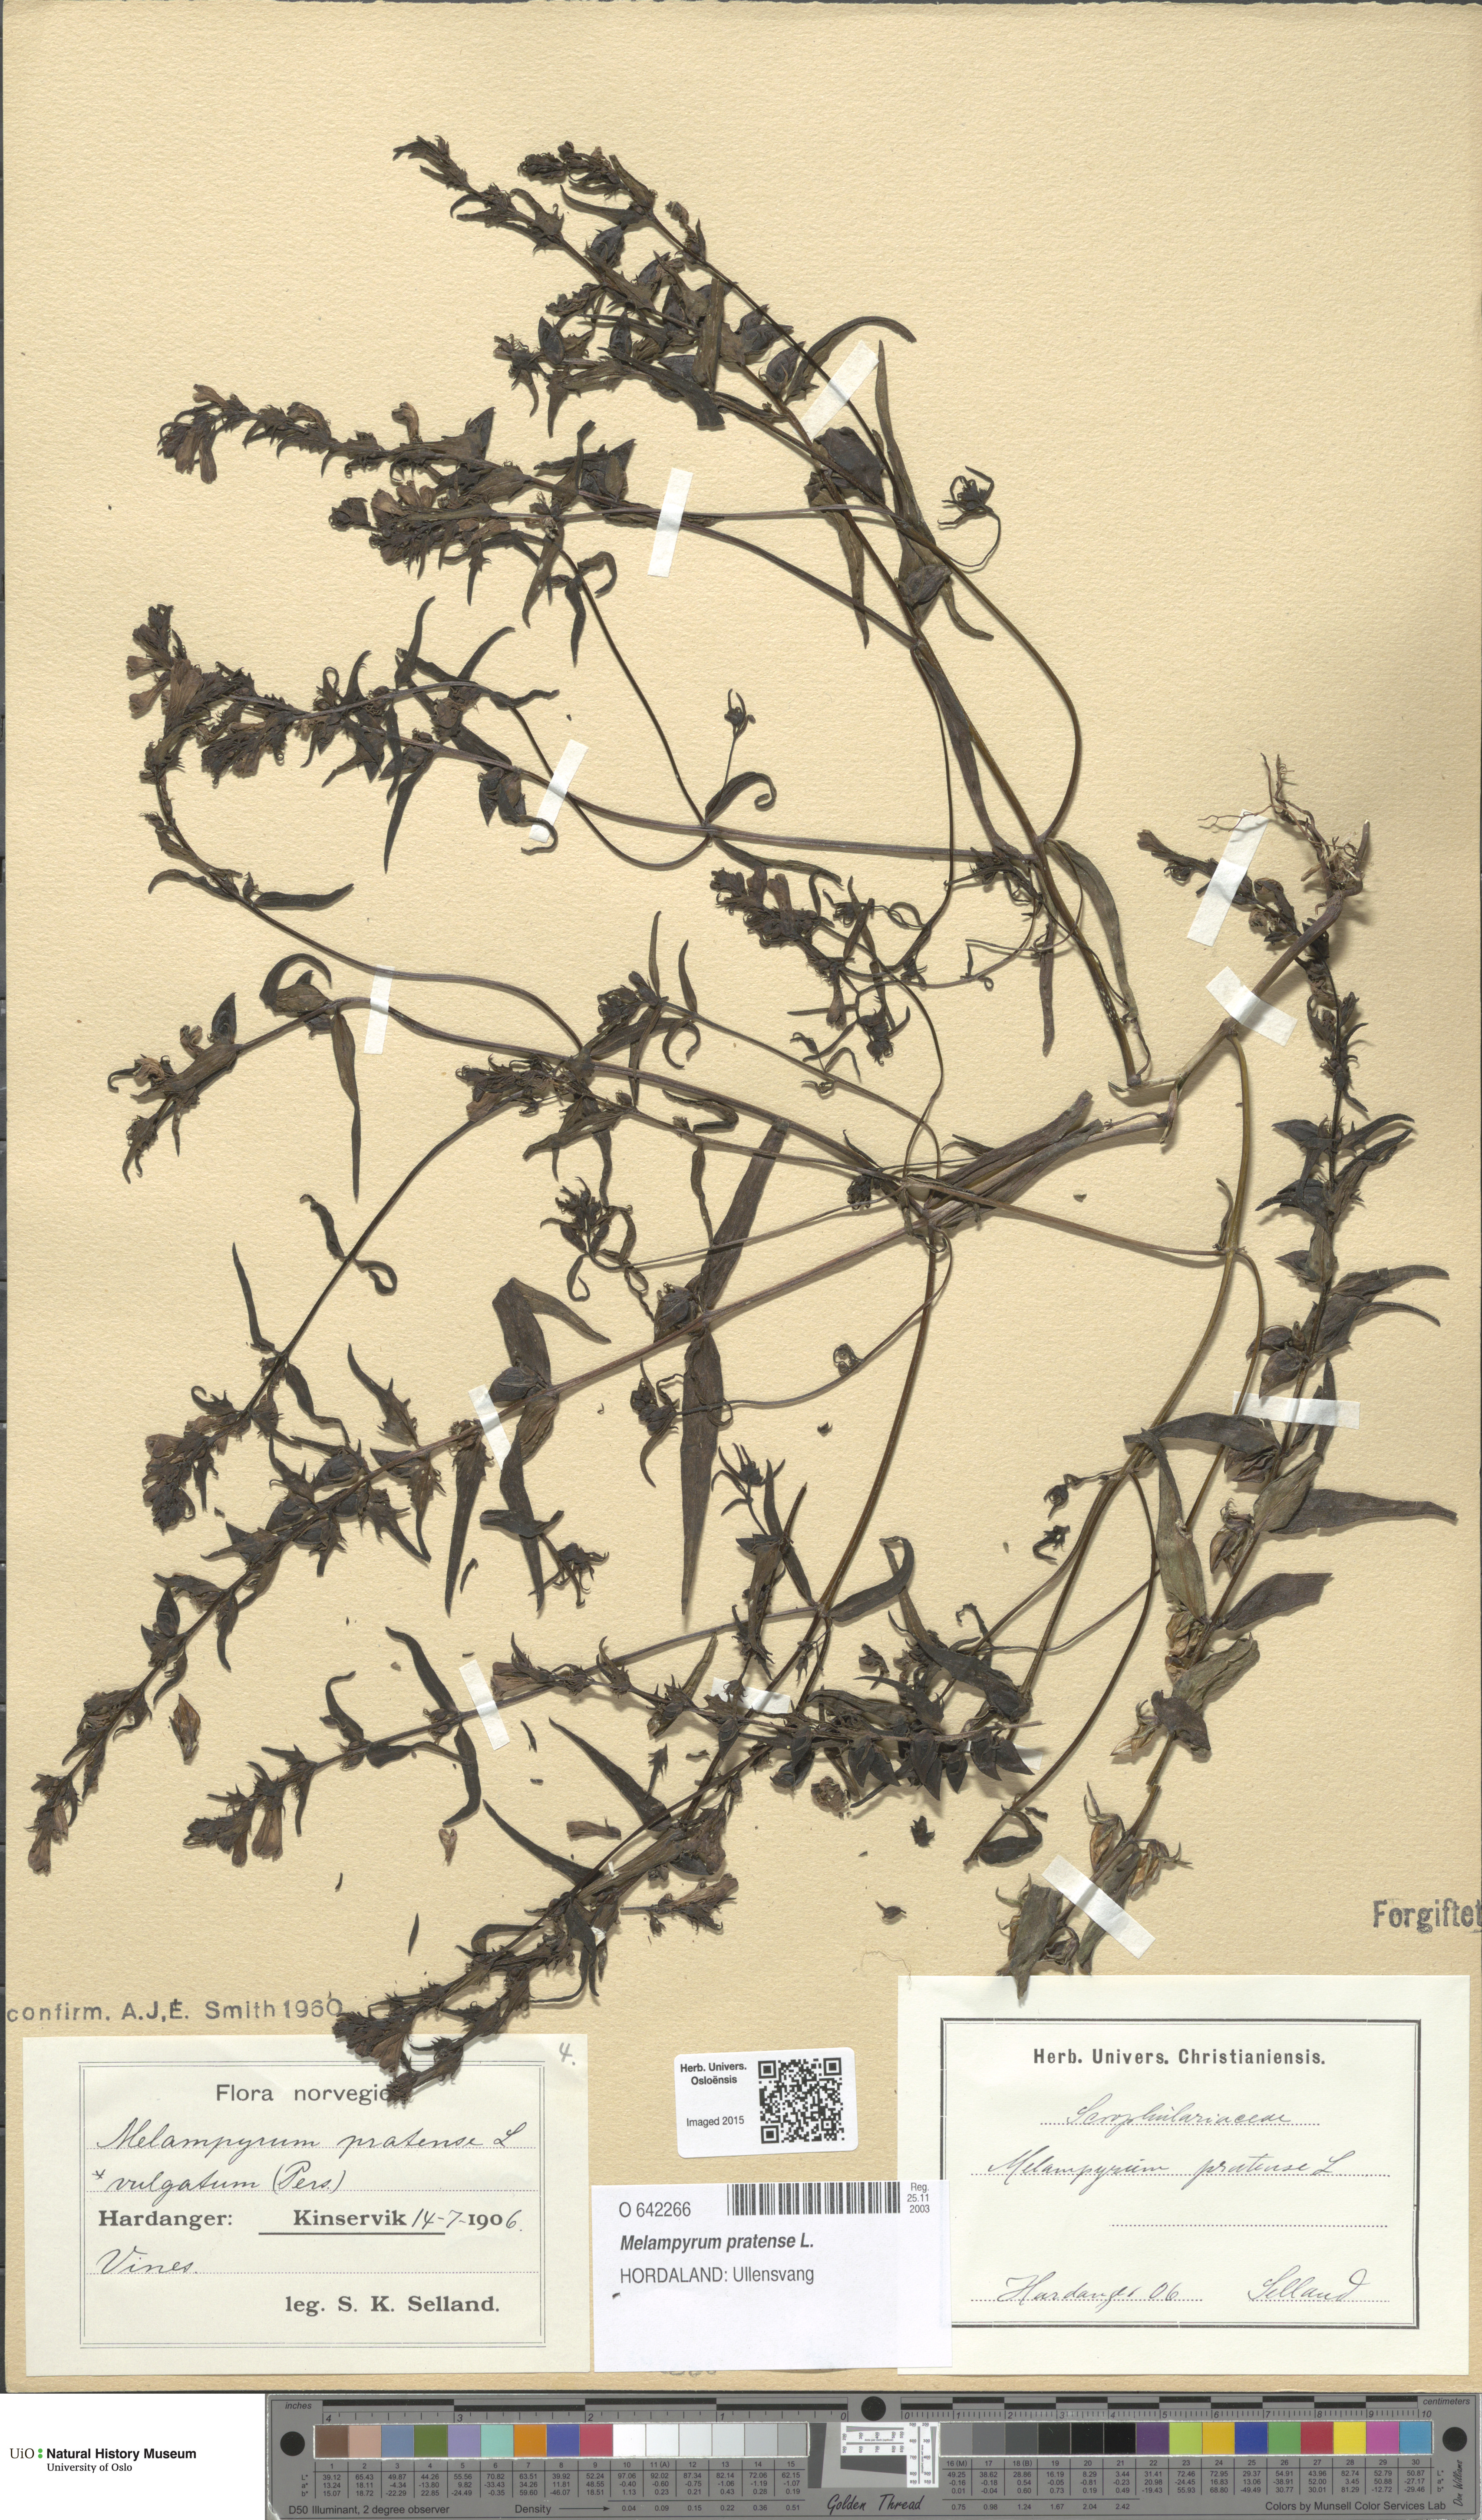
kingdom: Plantae
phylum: Tracheophyta
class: Magnoliopsida
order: Lamiales
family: Orobanchaceae
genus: Melampyrum
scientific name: Melampyrum pratense
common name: Common cow-wheat
